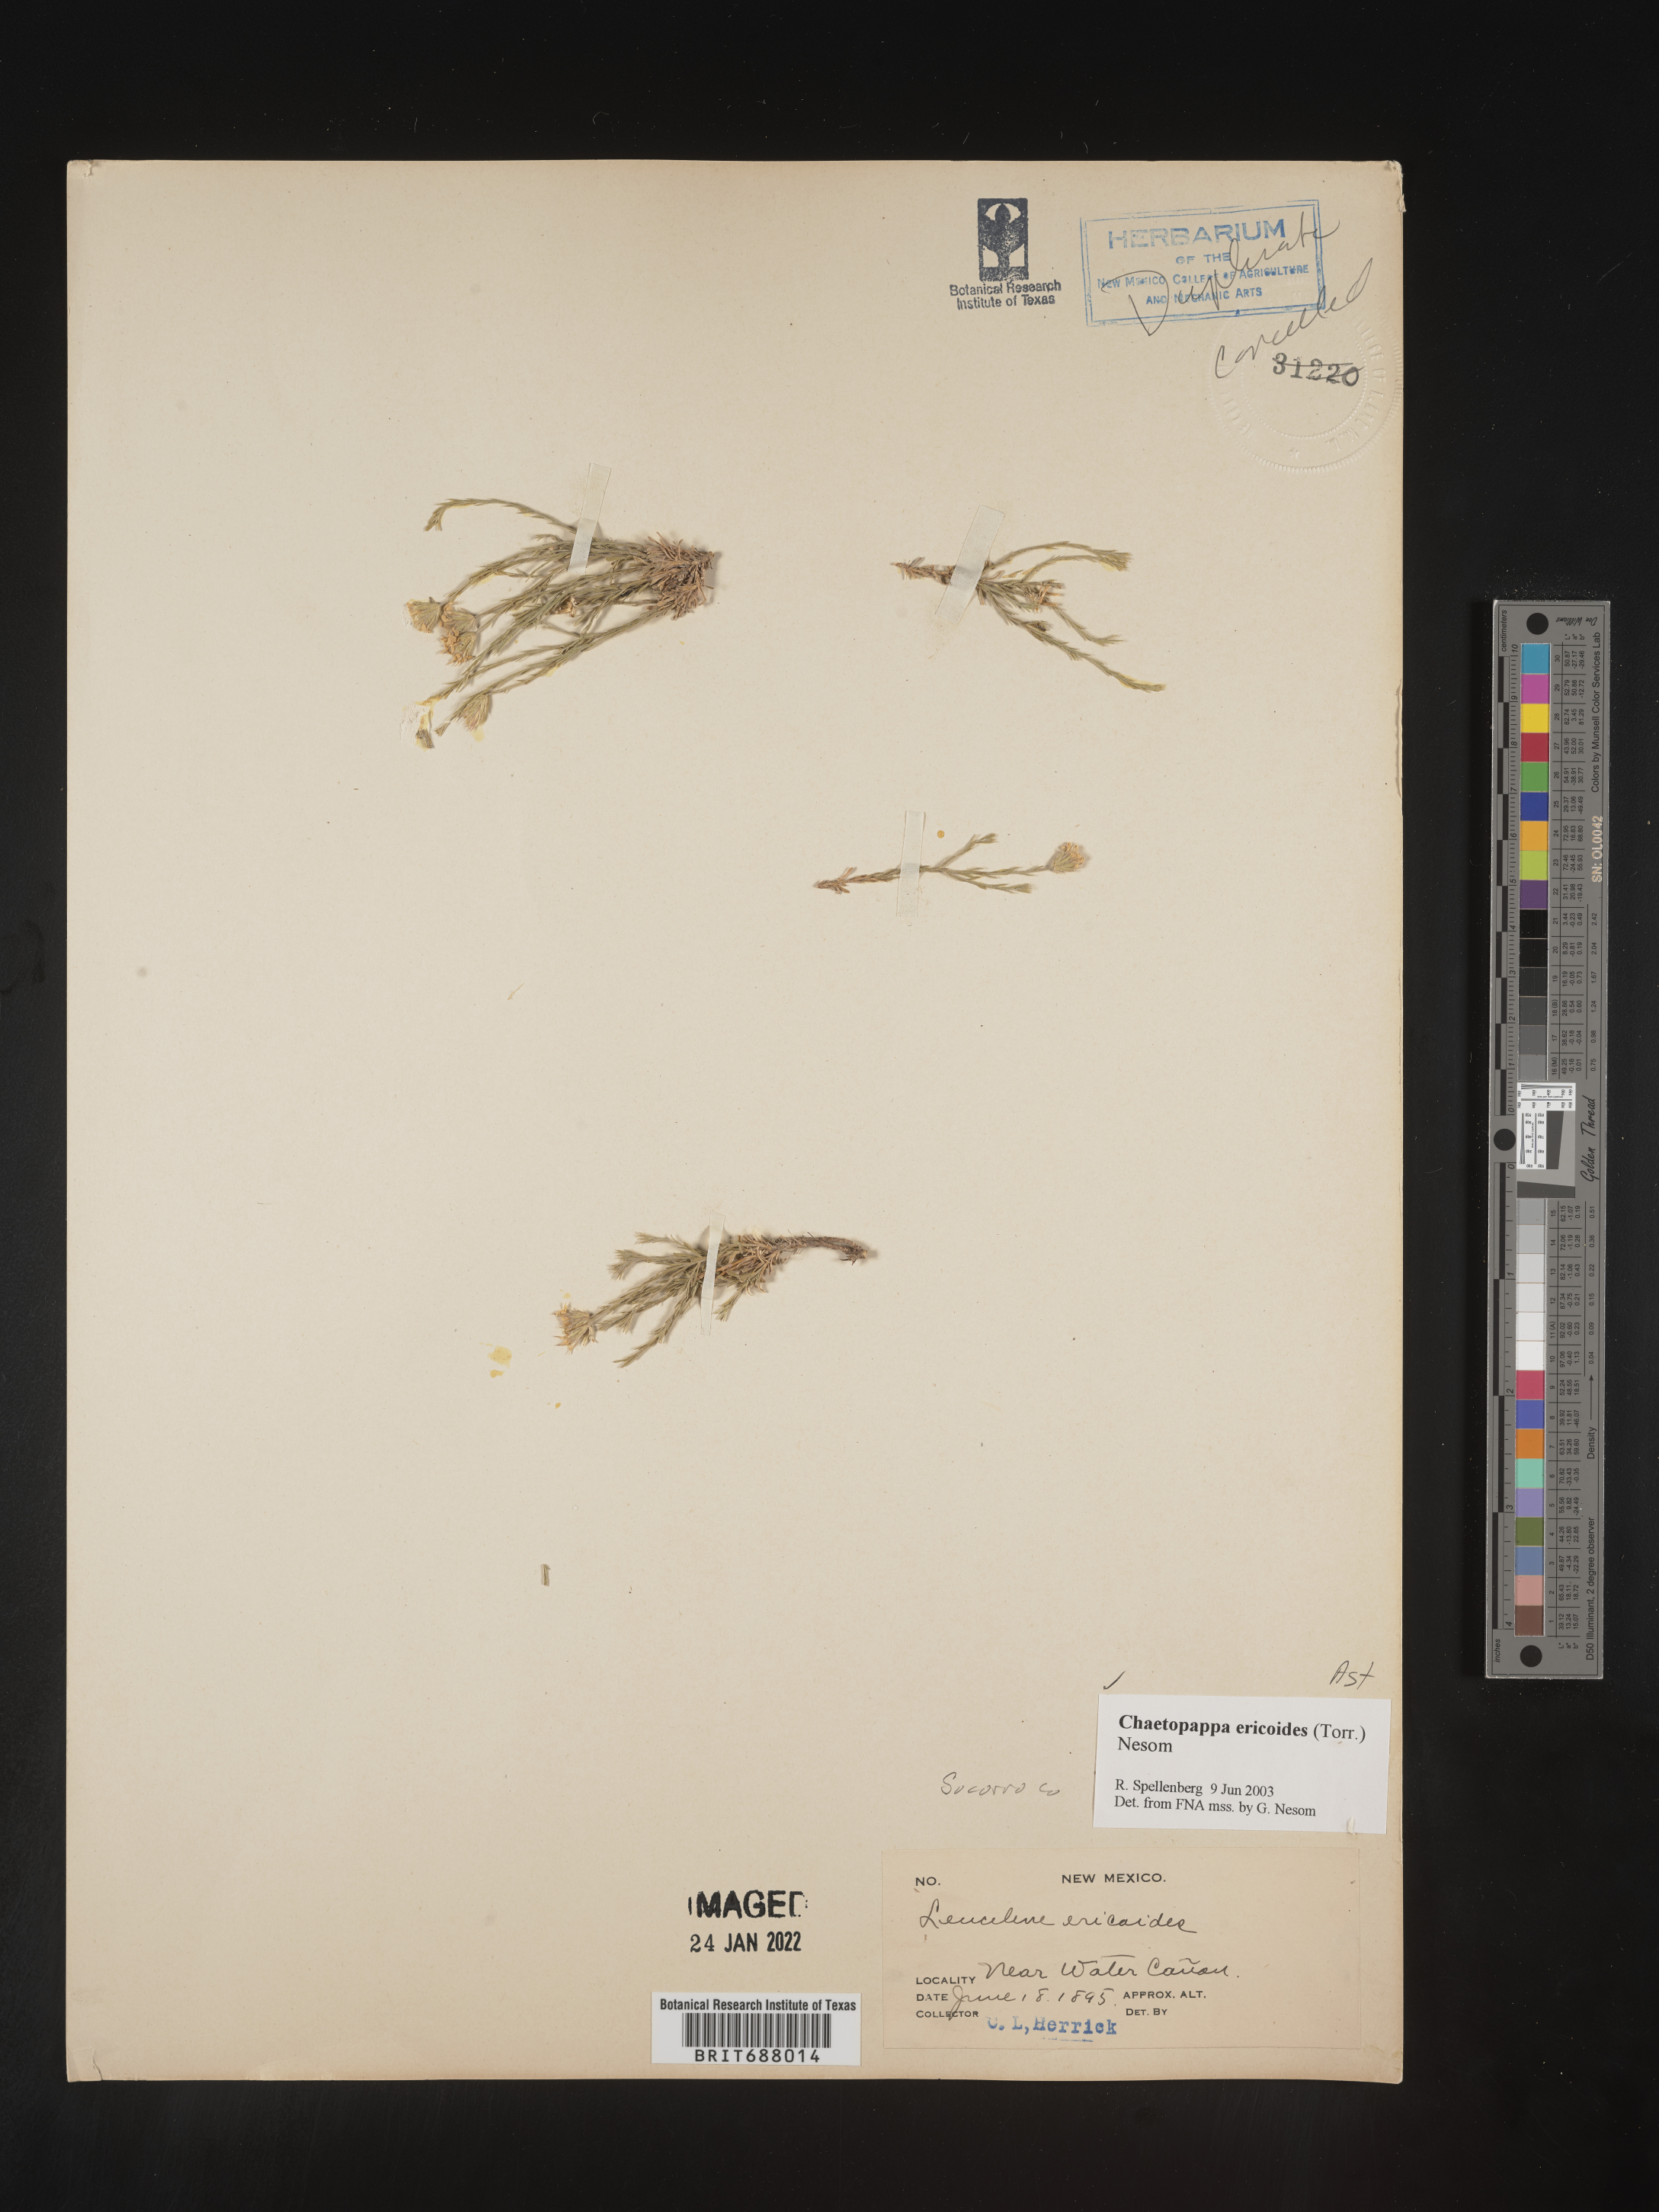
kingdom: Plantae
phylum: Tracheophyta
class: Magnoliopsida
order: Asterales
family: Asteraceae
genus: Chaetopappa
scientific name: Chaetopappa ericoides
